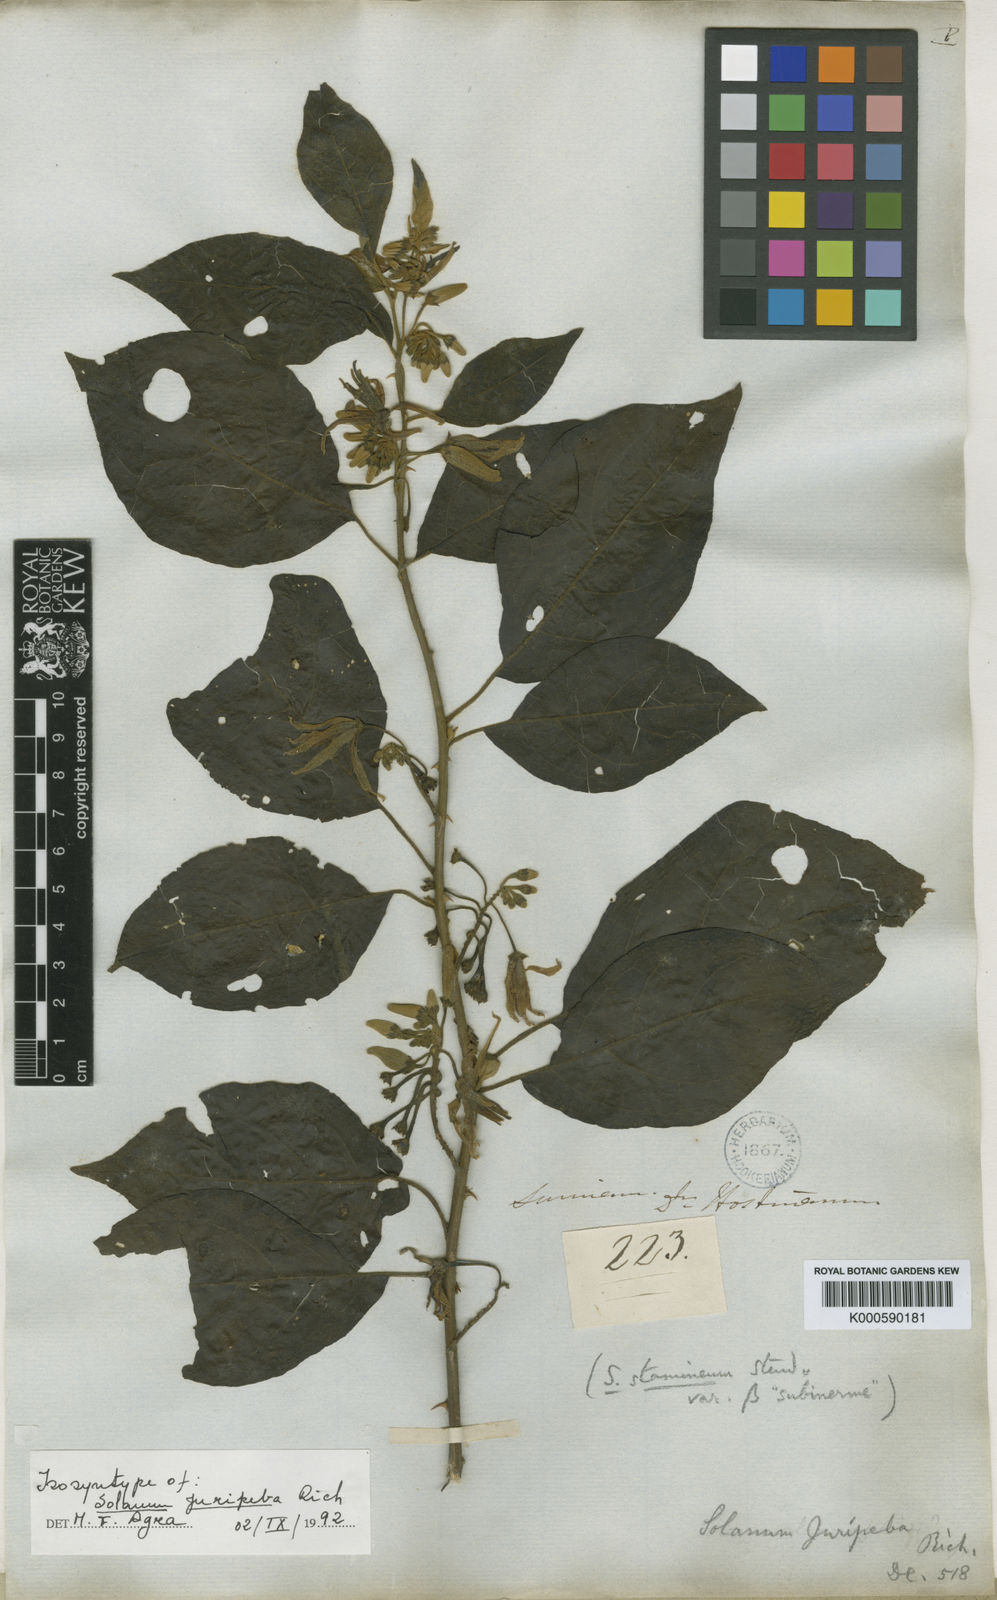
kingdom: Plantae
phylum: Tracheophyta
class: Magnoliopsida
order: Solanales
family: Solanaceae
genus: Solanum
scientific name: Solanum subinerme
